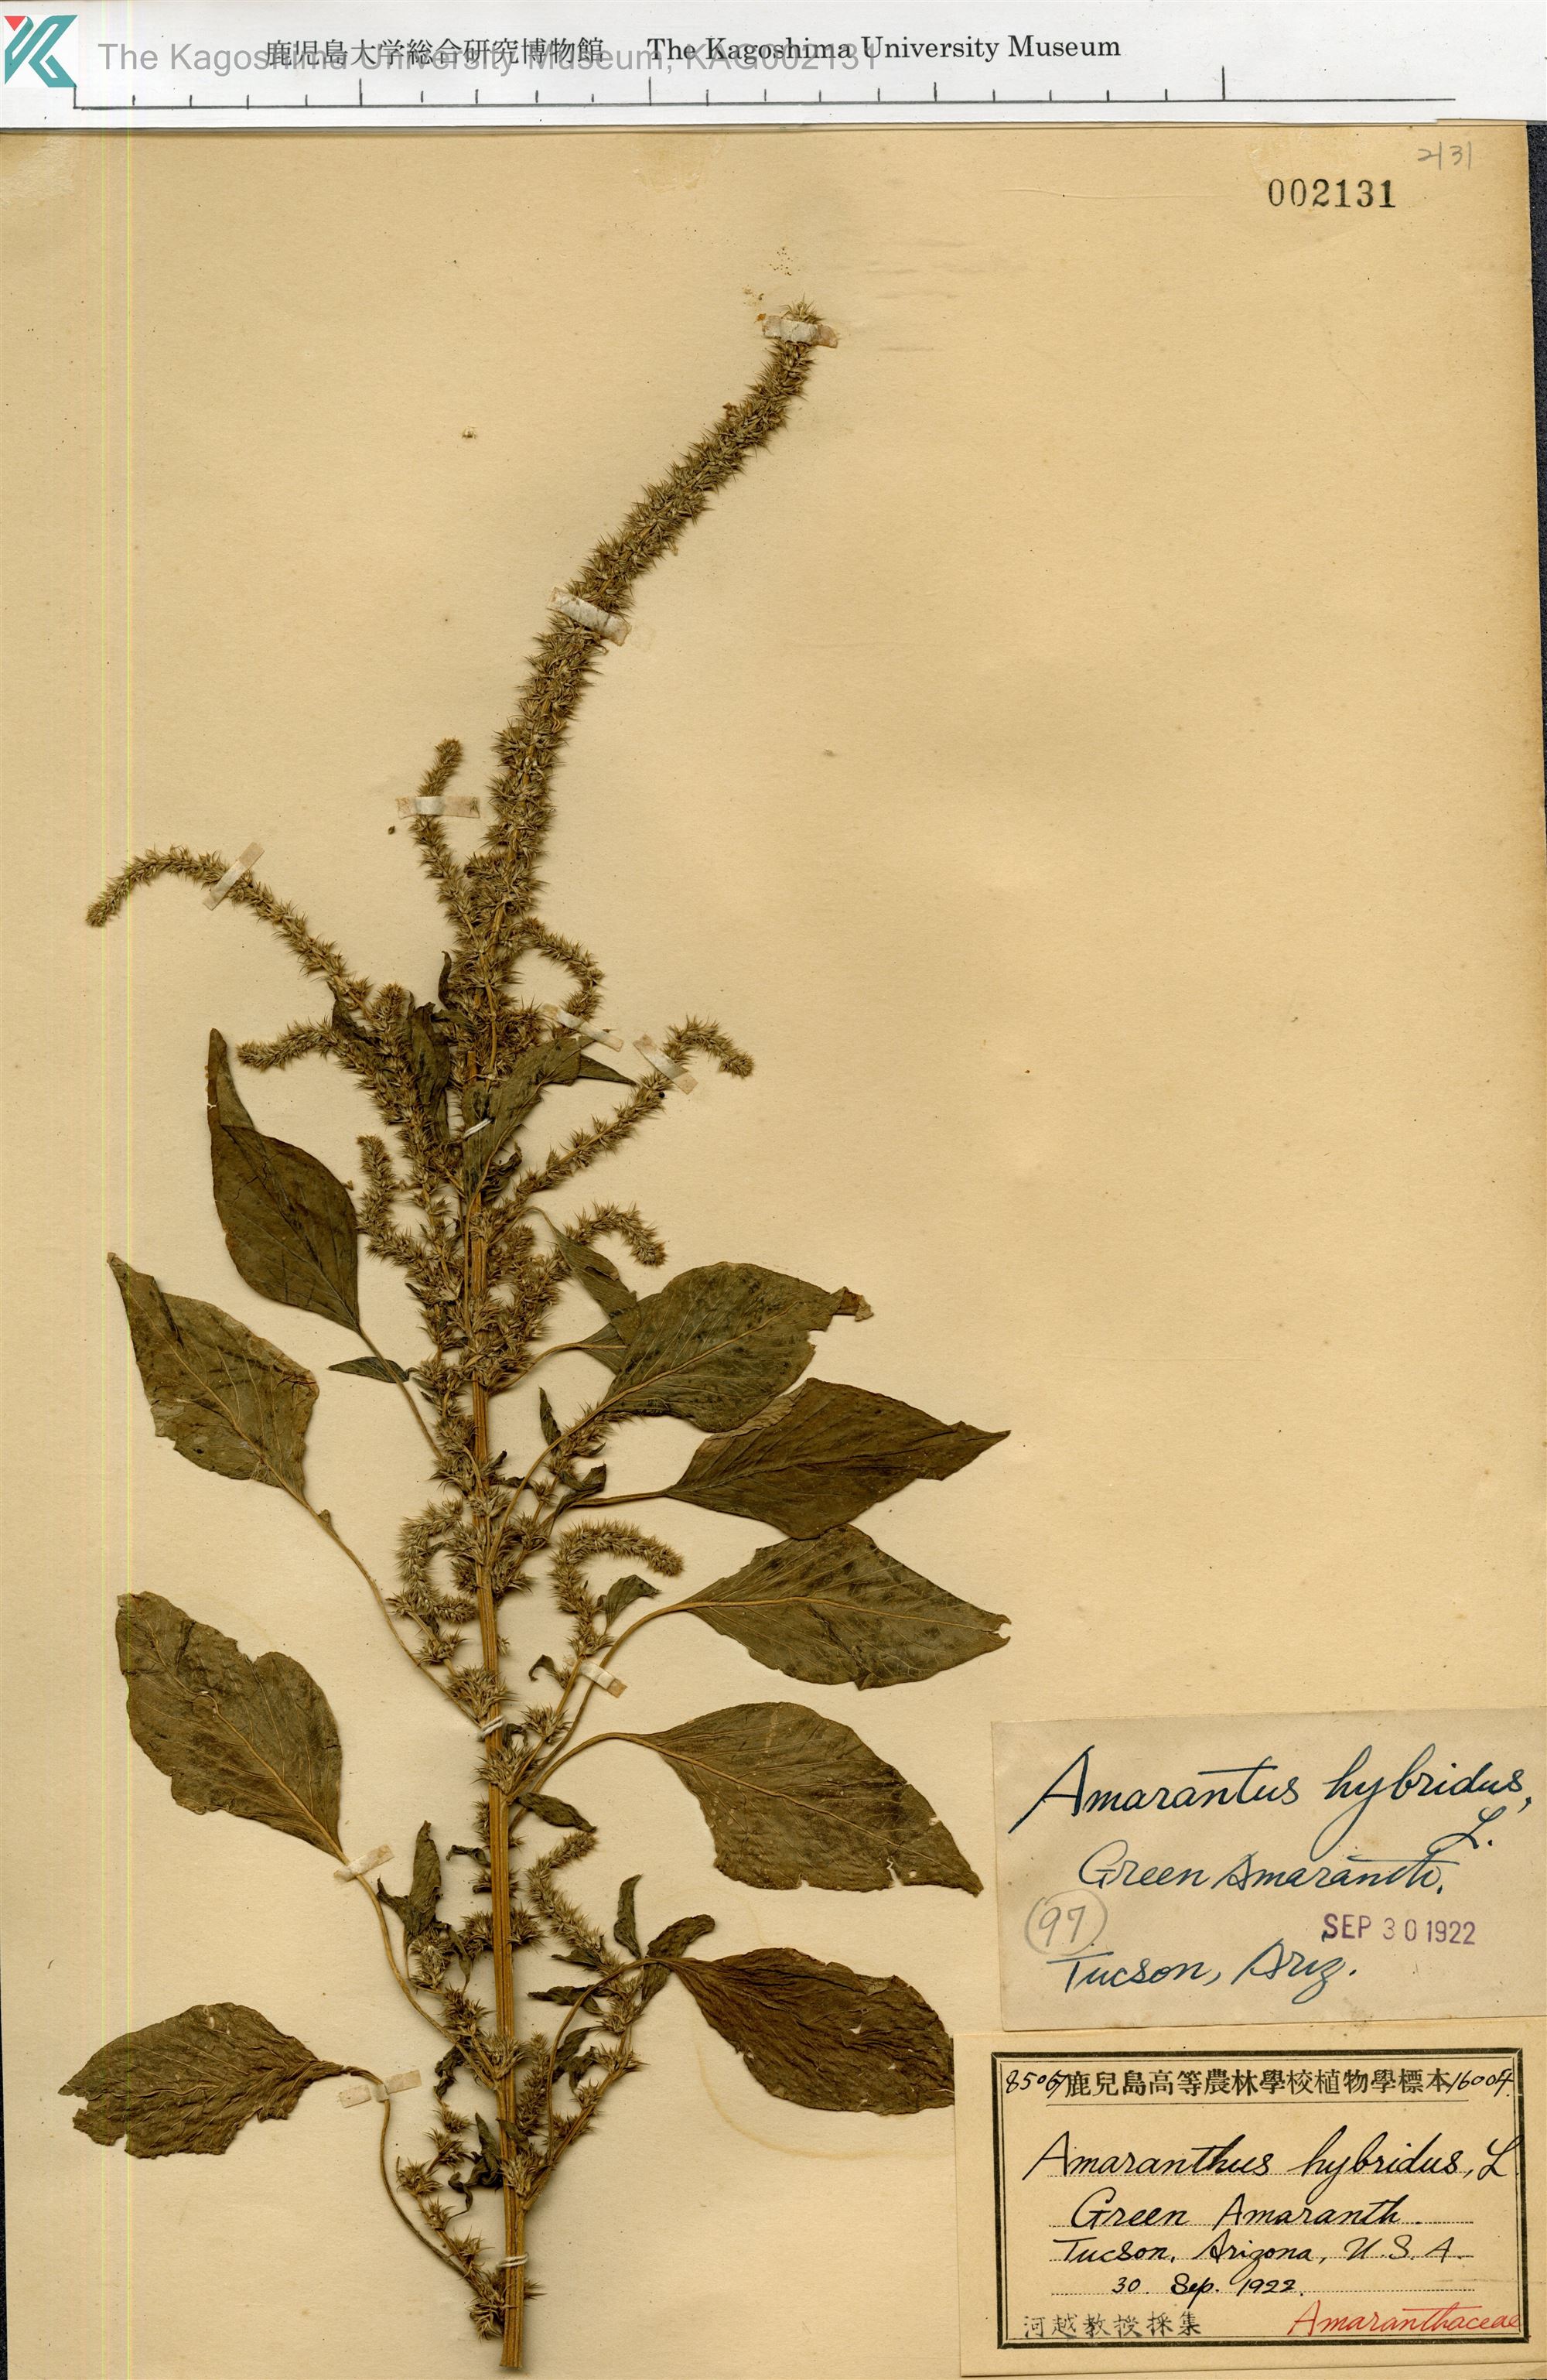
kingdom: Plantae
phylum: Tracheophyta
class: Magnoliopsida
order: Caryophyllales
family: Amaranthaceae
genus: Amaranthus
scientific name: Amaranthus hybridus
